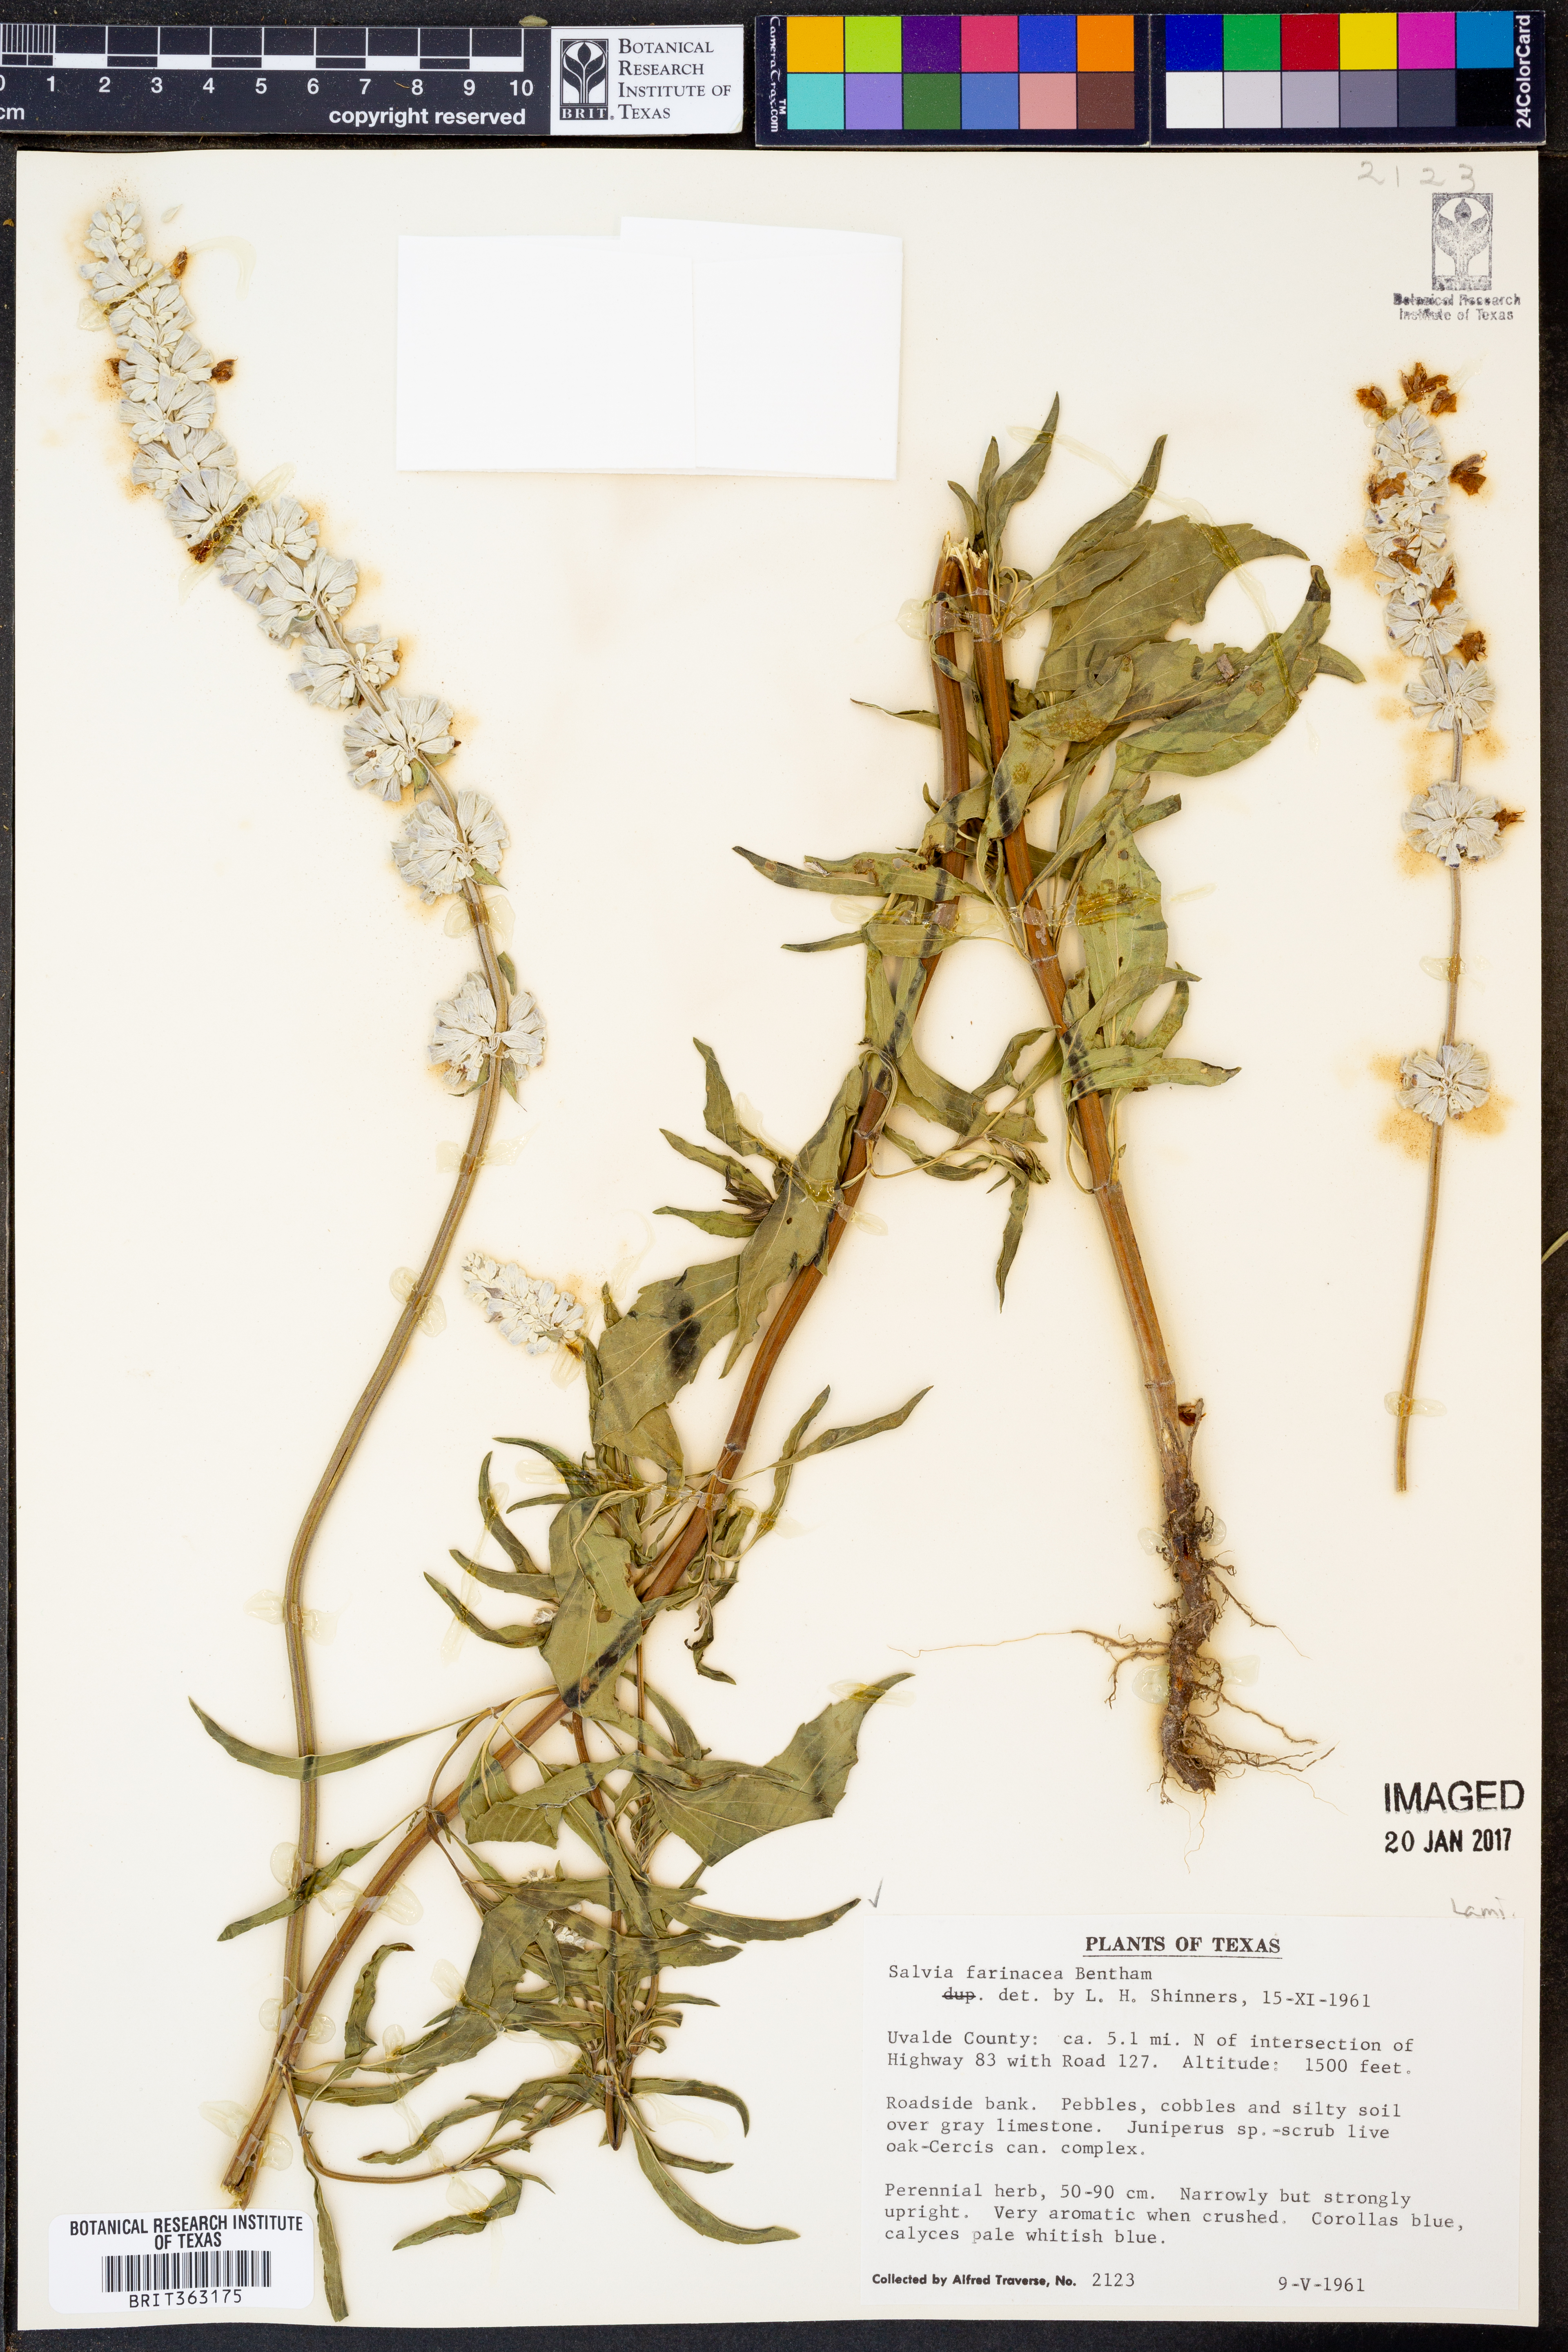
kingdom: Plantae
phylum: Tracheophyta
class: Magnoliopsida
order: Lamiales
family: Lamiaceae
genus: Salvia
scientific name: Salvia farinacea
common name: Mealy sage
